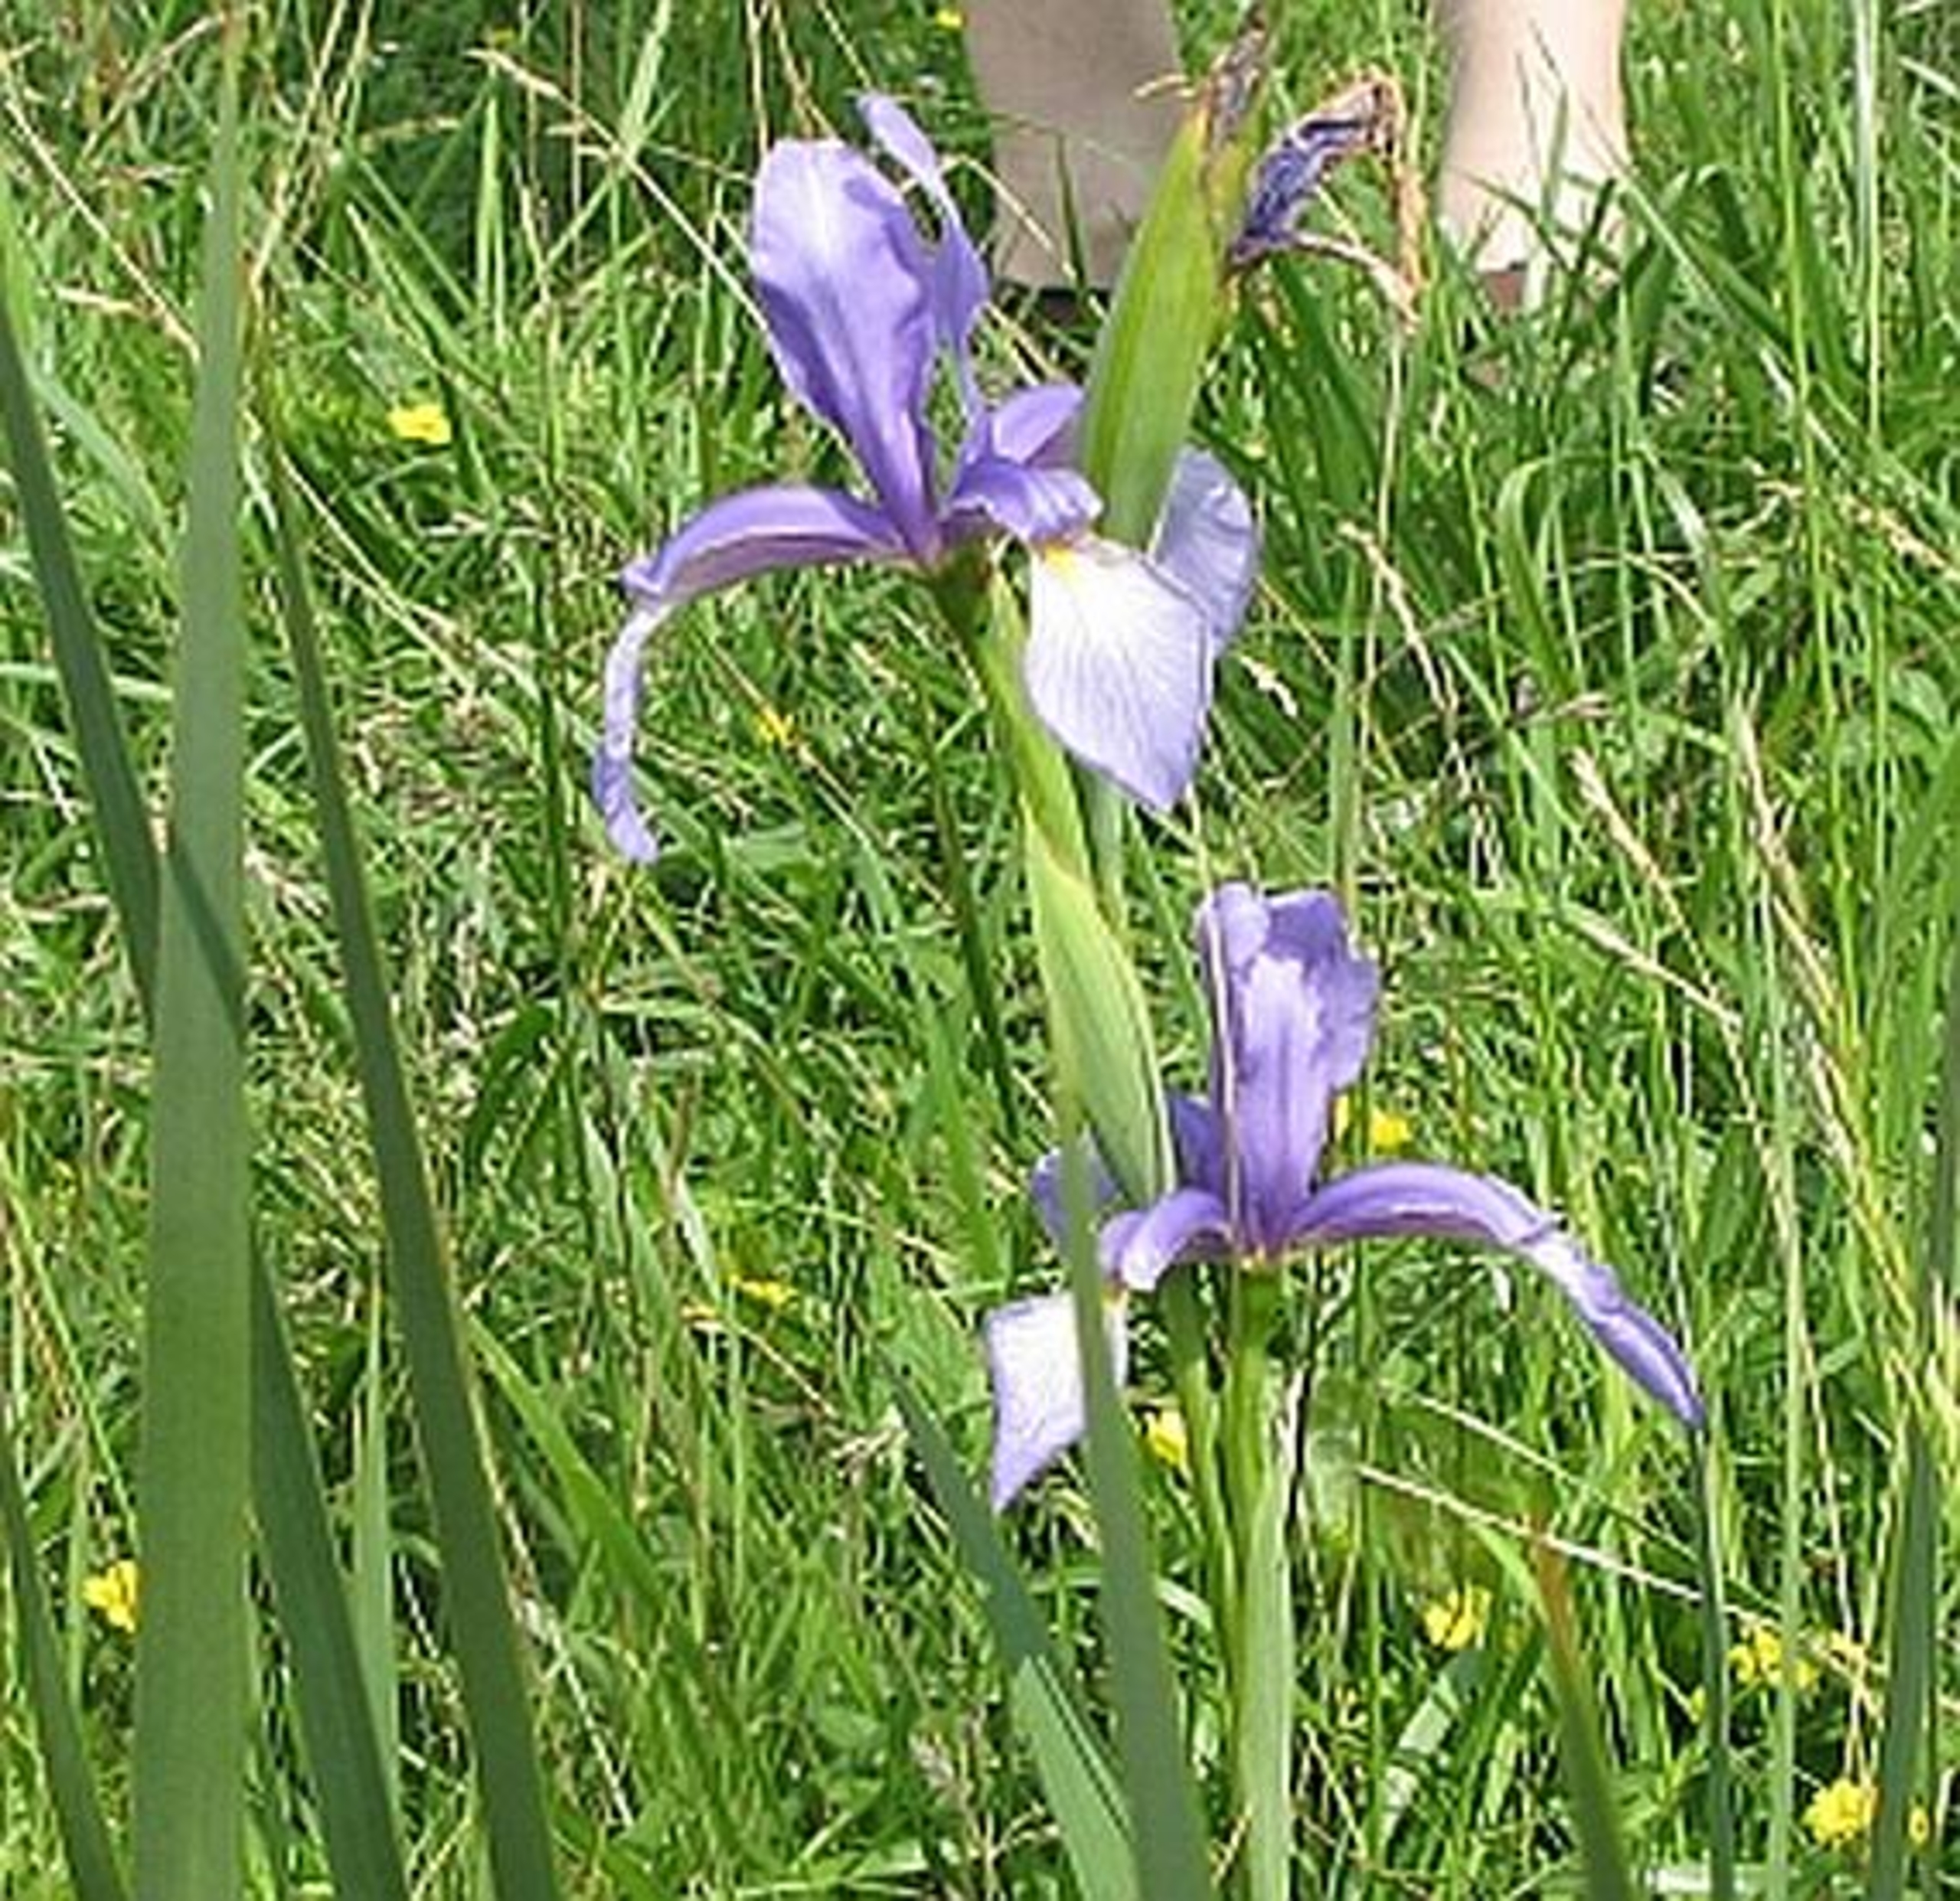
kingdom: Plantae
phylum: Tracheophyta
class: Liliopsida
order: Asparagales
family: Iridaceae
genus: Iris
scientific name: Iris spuria
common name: Blå iris
